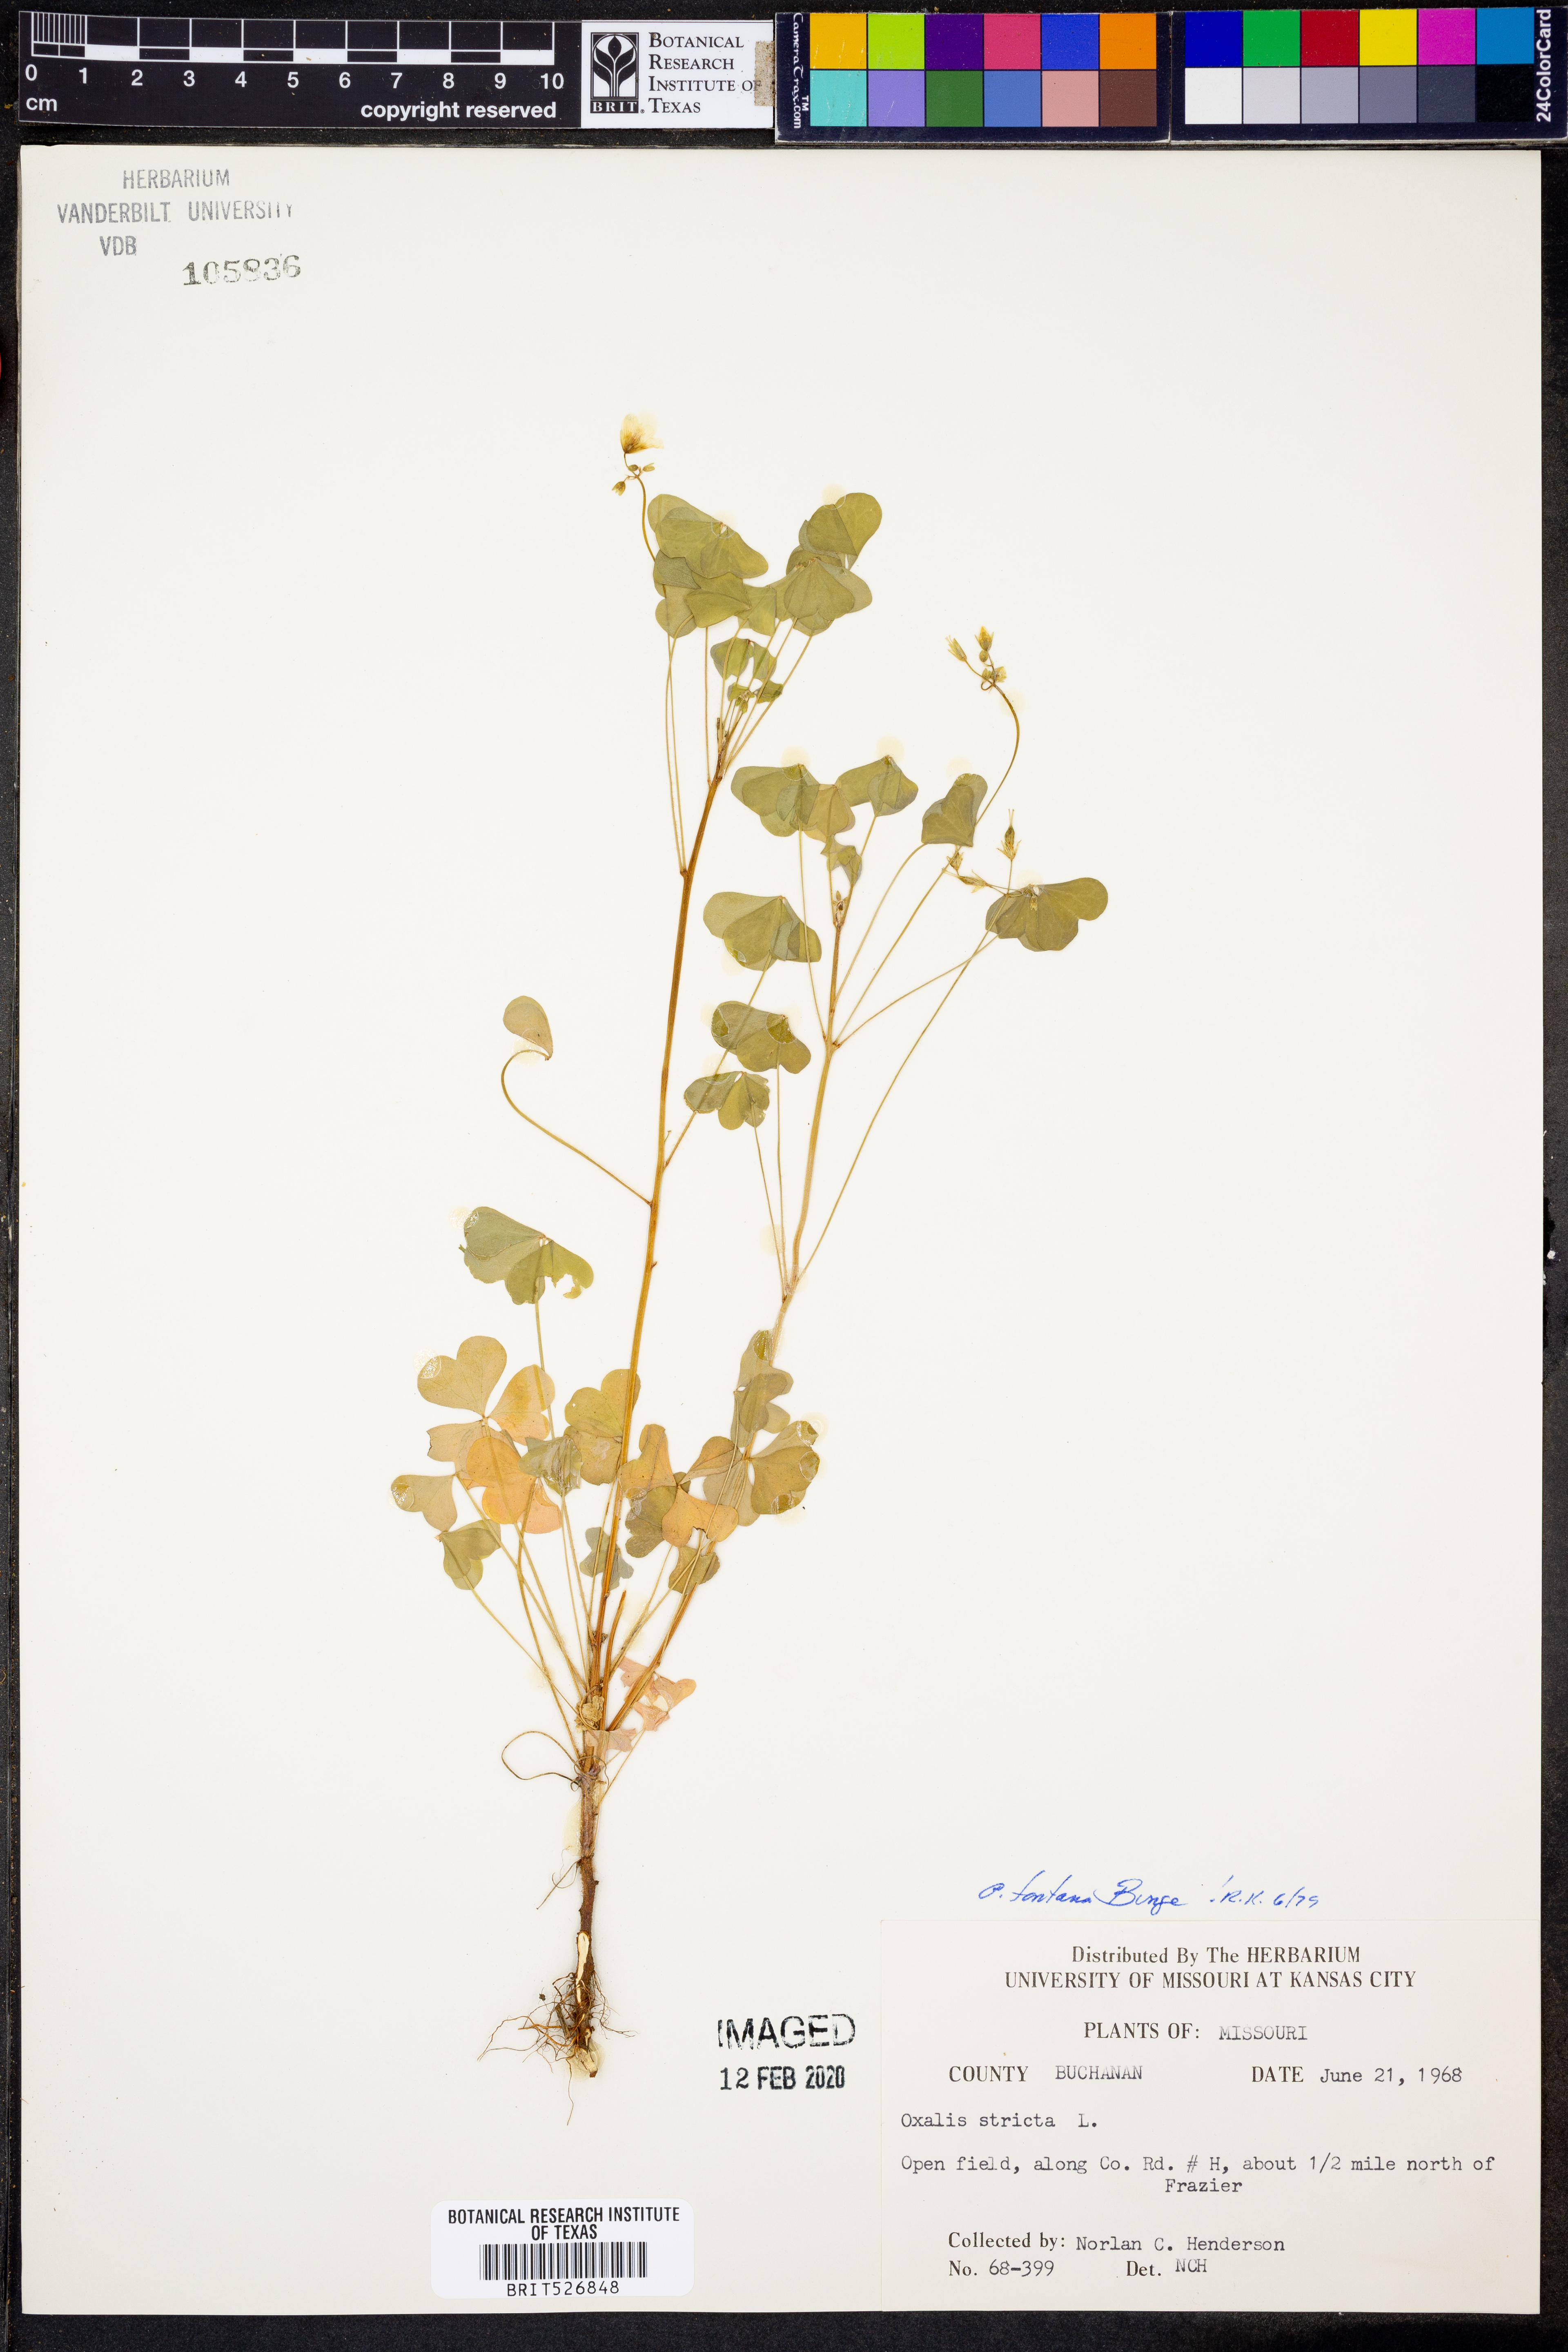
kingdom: Plantae
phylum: Tracheophyta
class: Magnoliopsida
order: Oxalidales
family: Oxalidaceae
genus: Oxalis
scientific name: Oxalis stricta
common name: Upright yellow-sorrel
